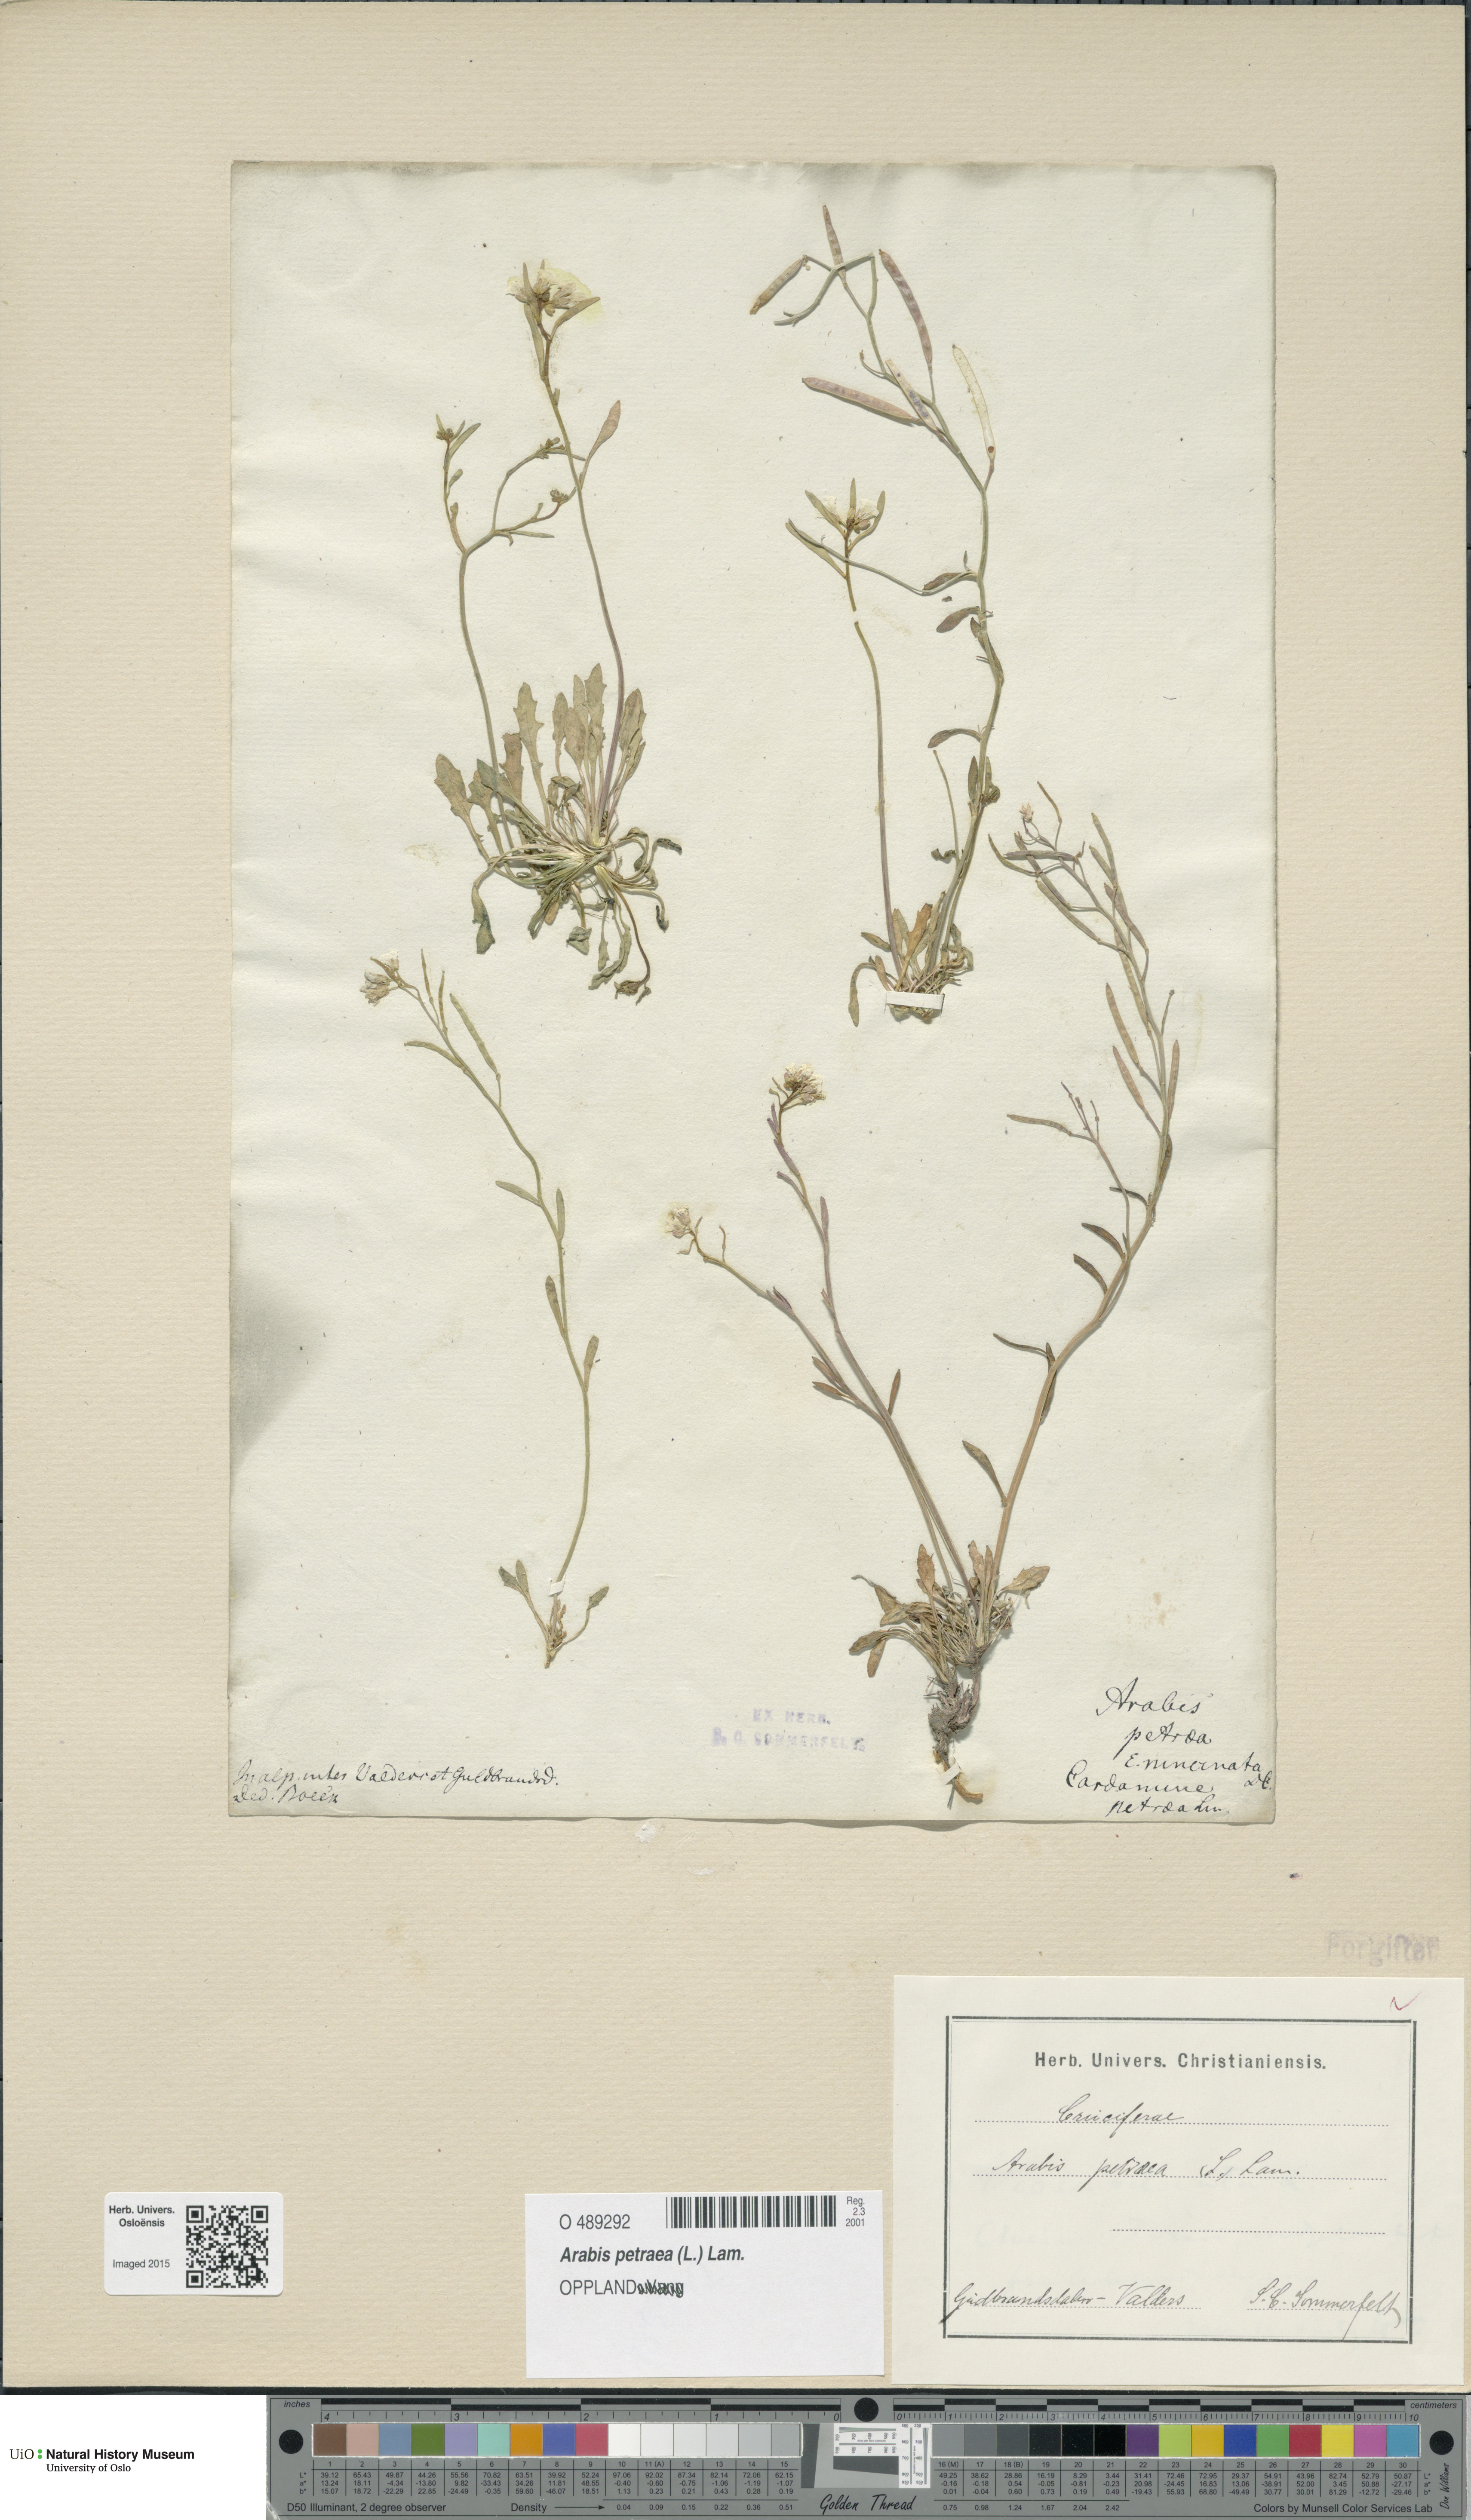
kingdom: Plantae
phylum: Tracheophyta
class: Magnoliopsida
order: Brassicales
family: Brassicaceae
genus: Arabidopsis
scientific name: Arabidopsis petraea
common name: Northern rock-cress
